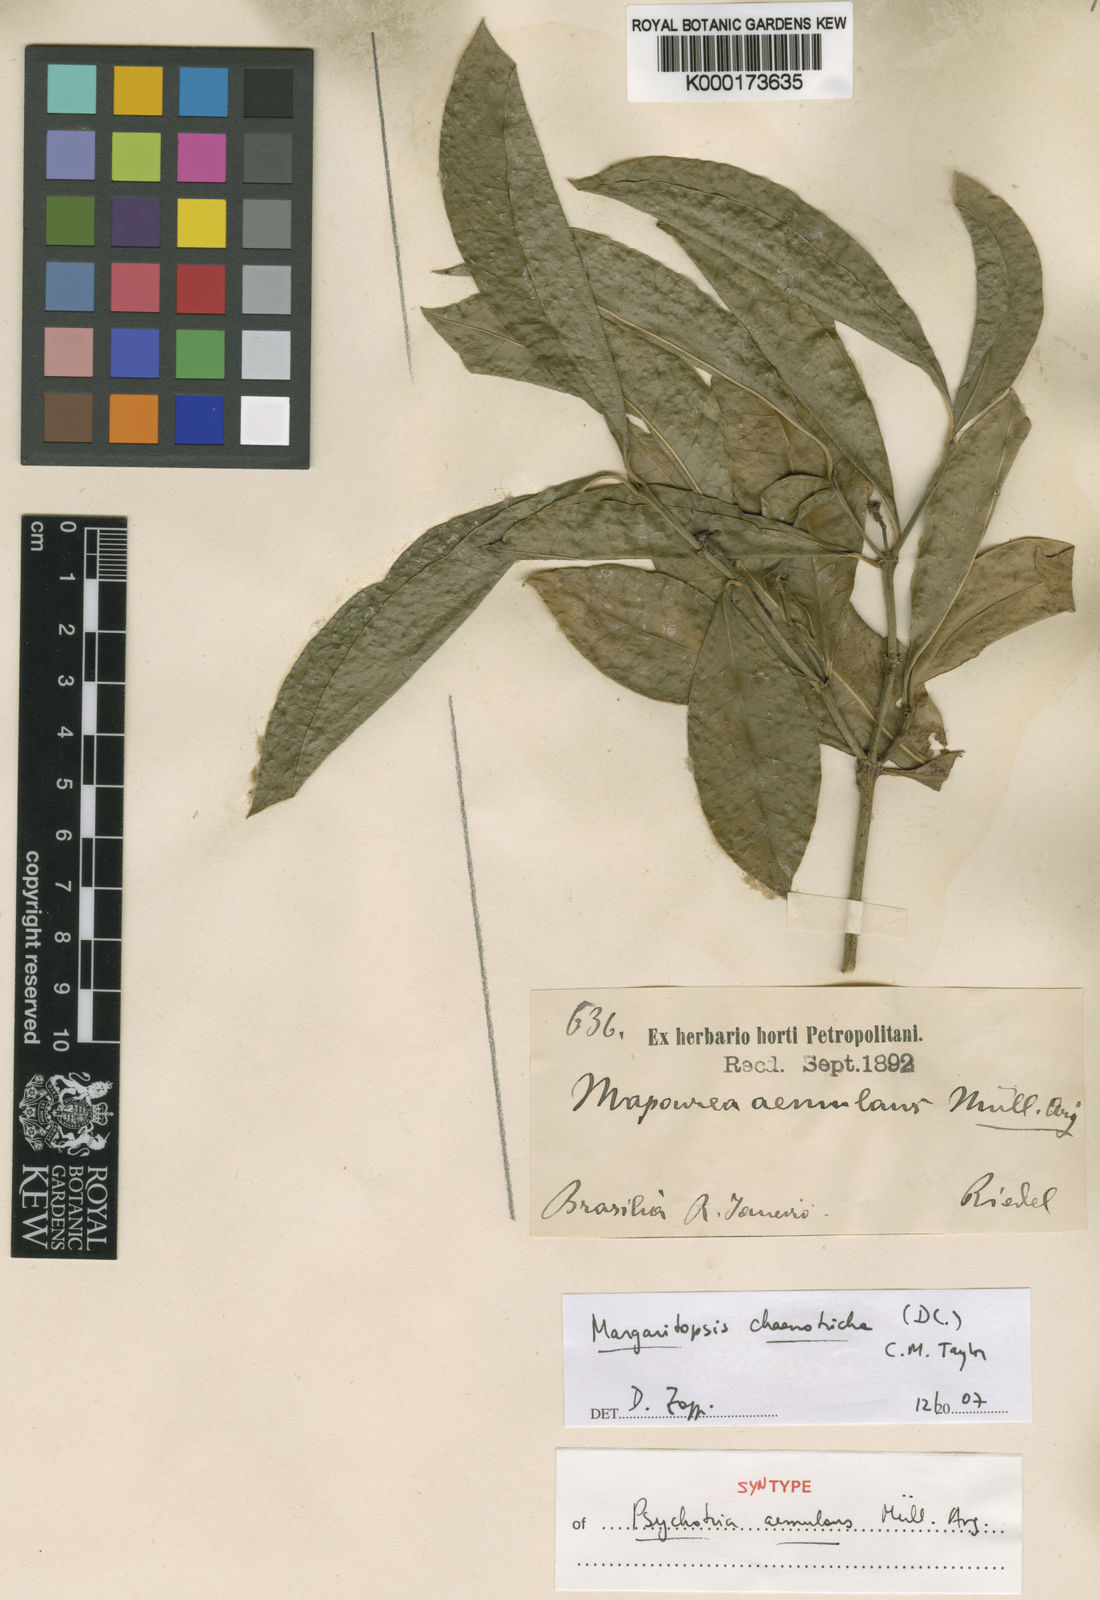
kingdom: Plantae
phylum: Tracheophyta
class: Magnoliopsida
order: Gentianales
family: Rubiaceae
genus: Eumachia
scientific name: Eumachia chaenotricha
